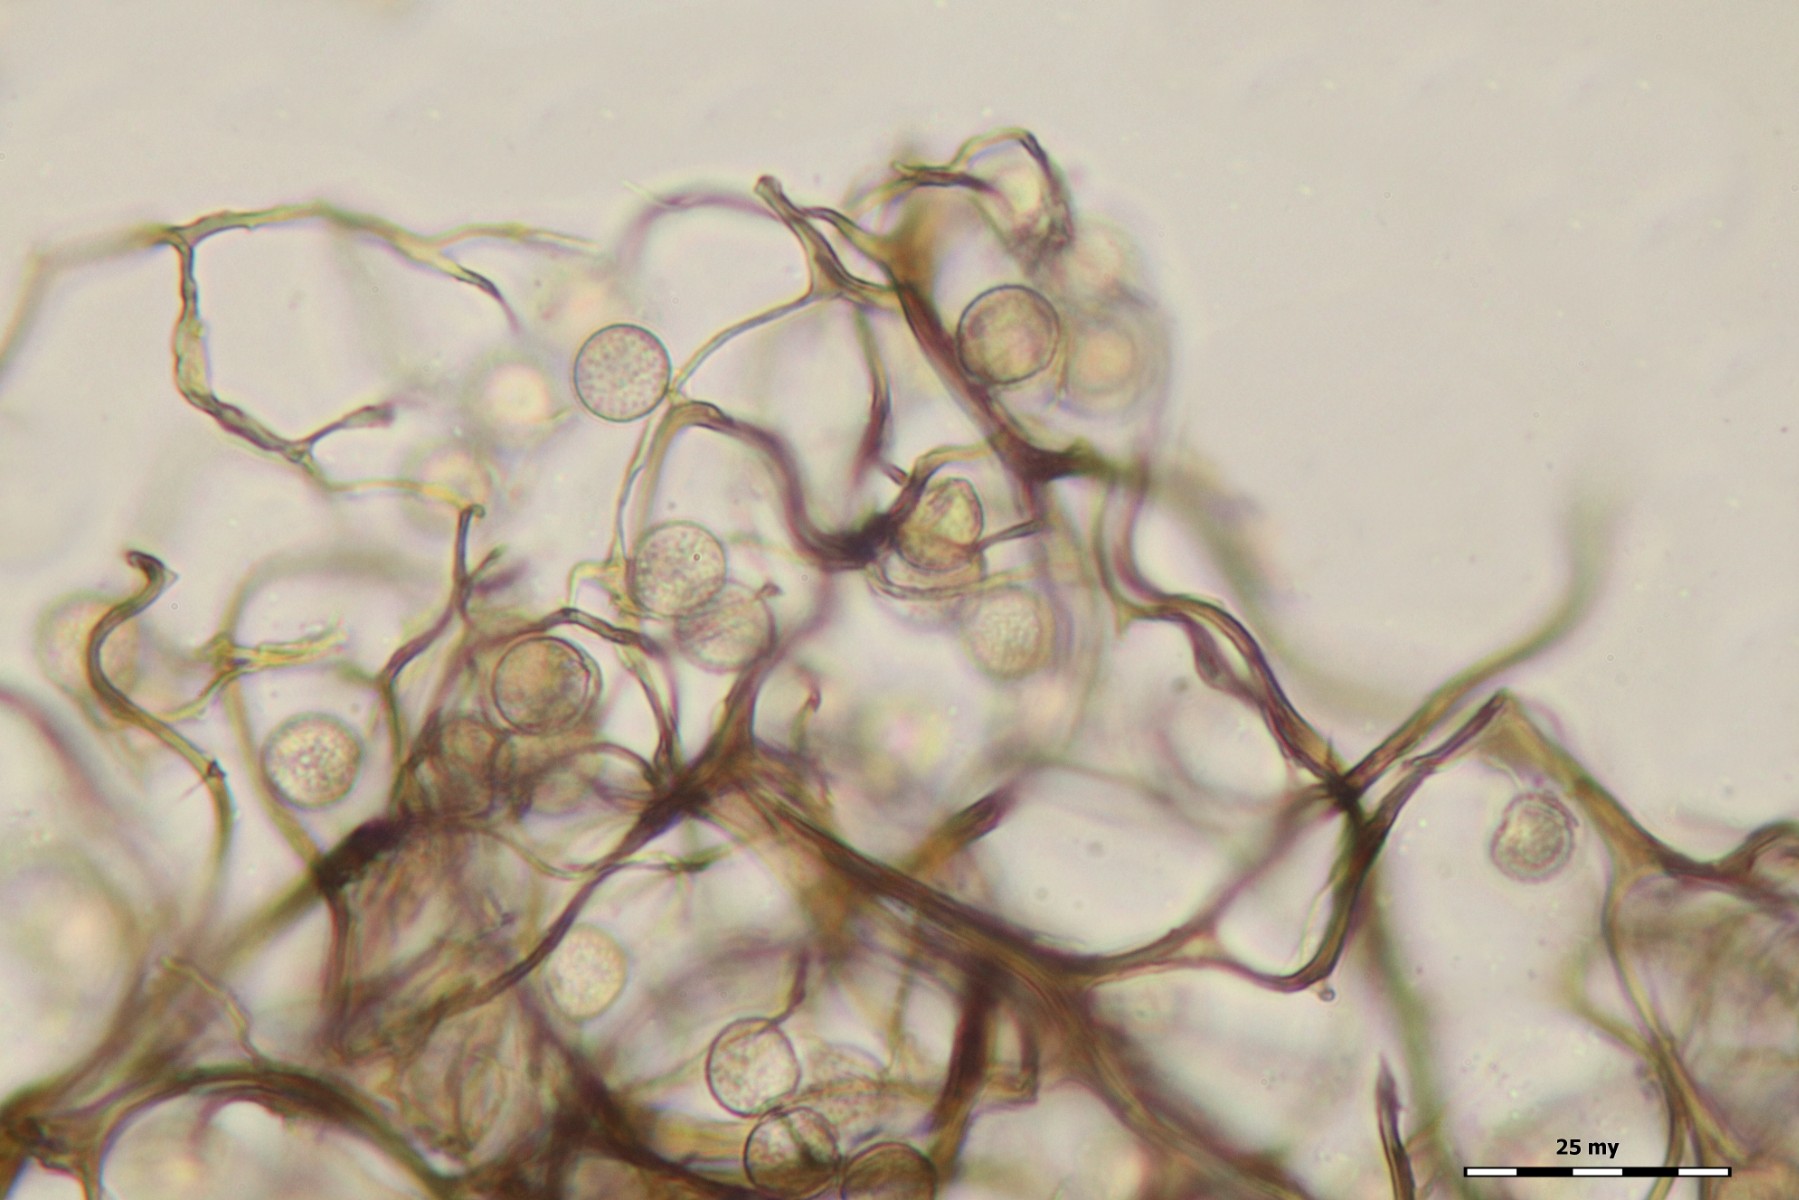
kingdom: Protozoa
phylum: Mycetozoa
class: Myxomycetes
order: Stemonitidales
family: Stemonitidaceae
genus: Comatricha
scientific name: Comatricha pulchella
